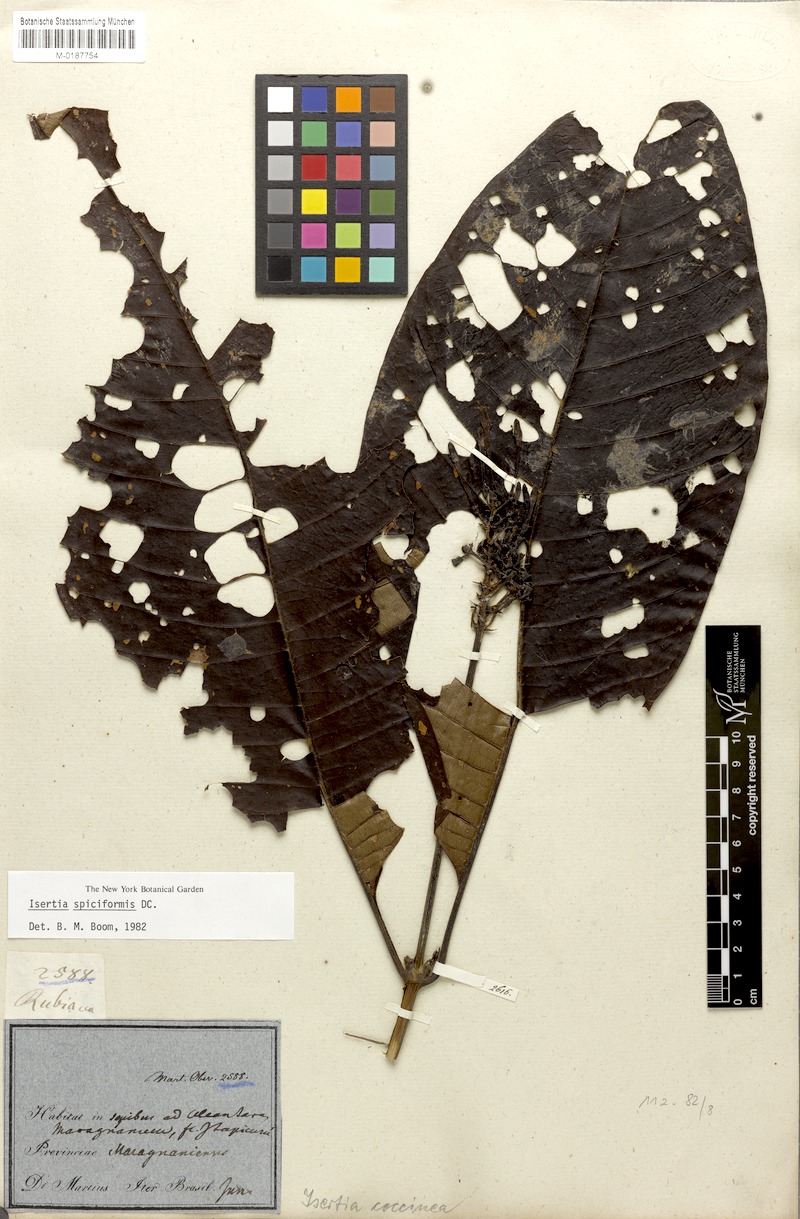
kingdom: Plantae
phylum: Tracheophyta
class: Magnoliopsida
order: Gentianales
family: Rubiaceae
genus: Isertia
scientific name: Isertia spiciformis
